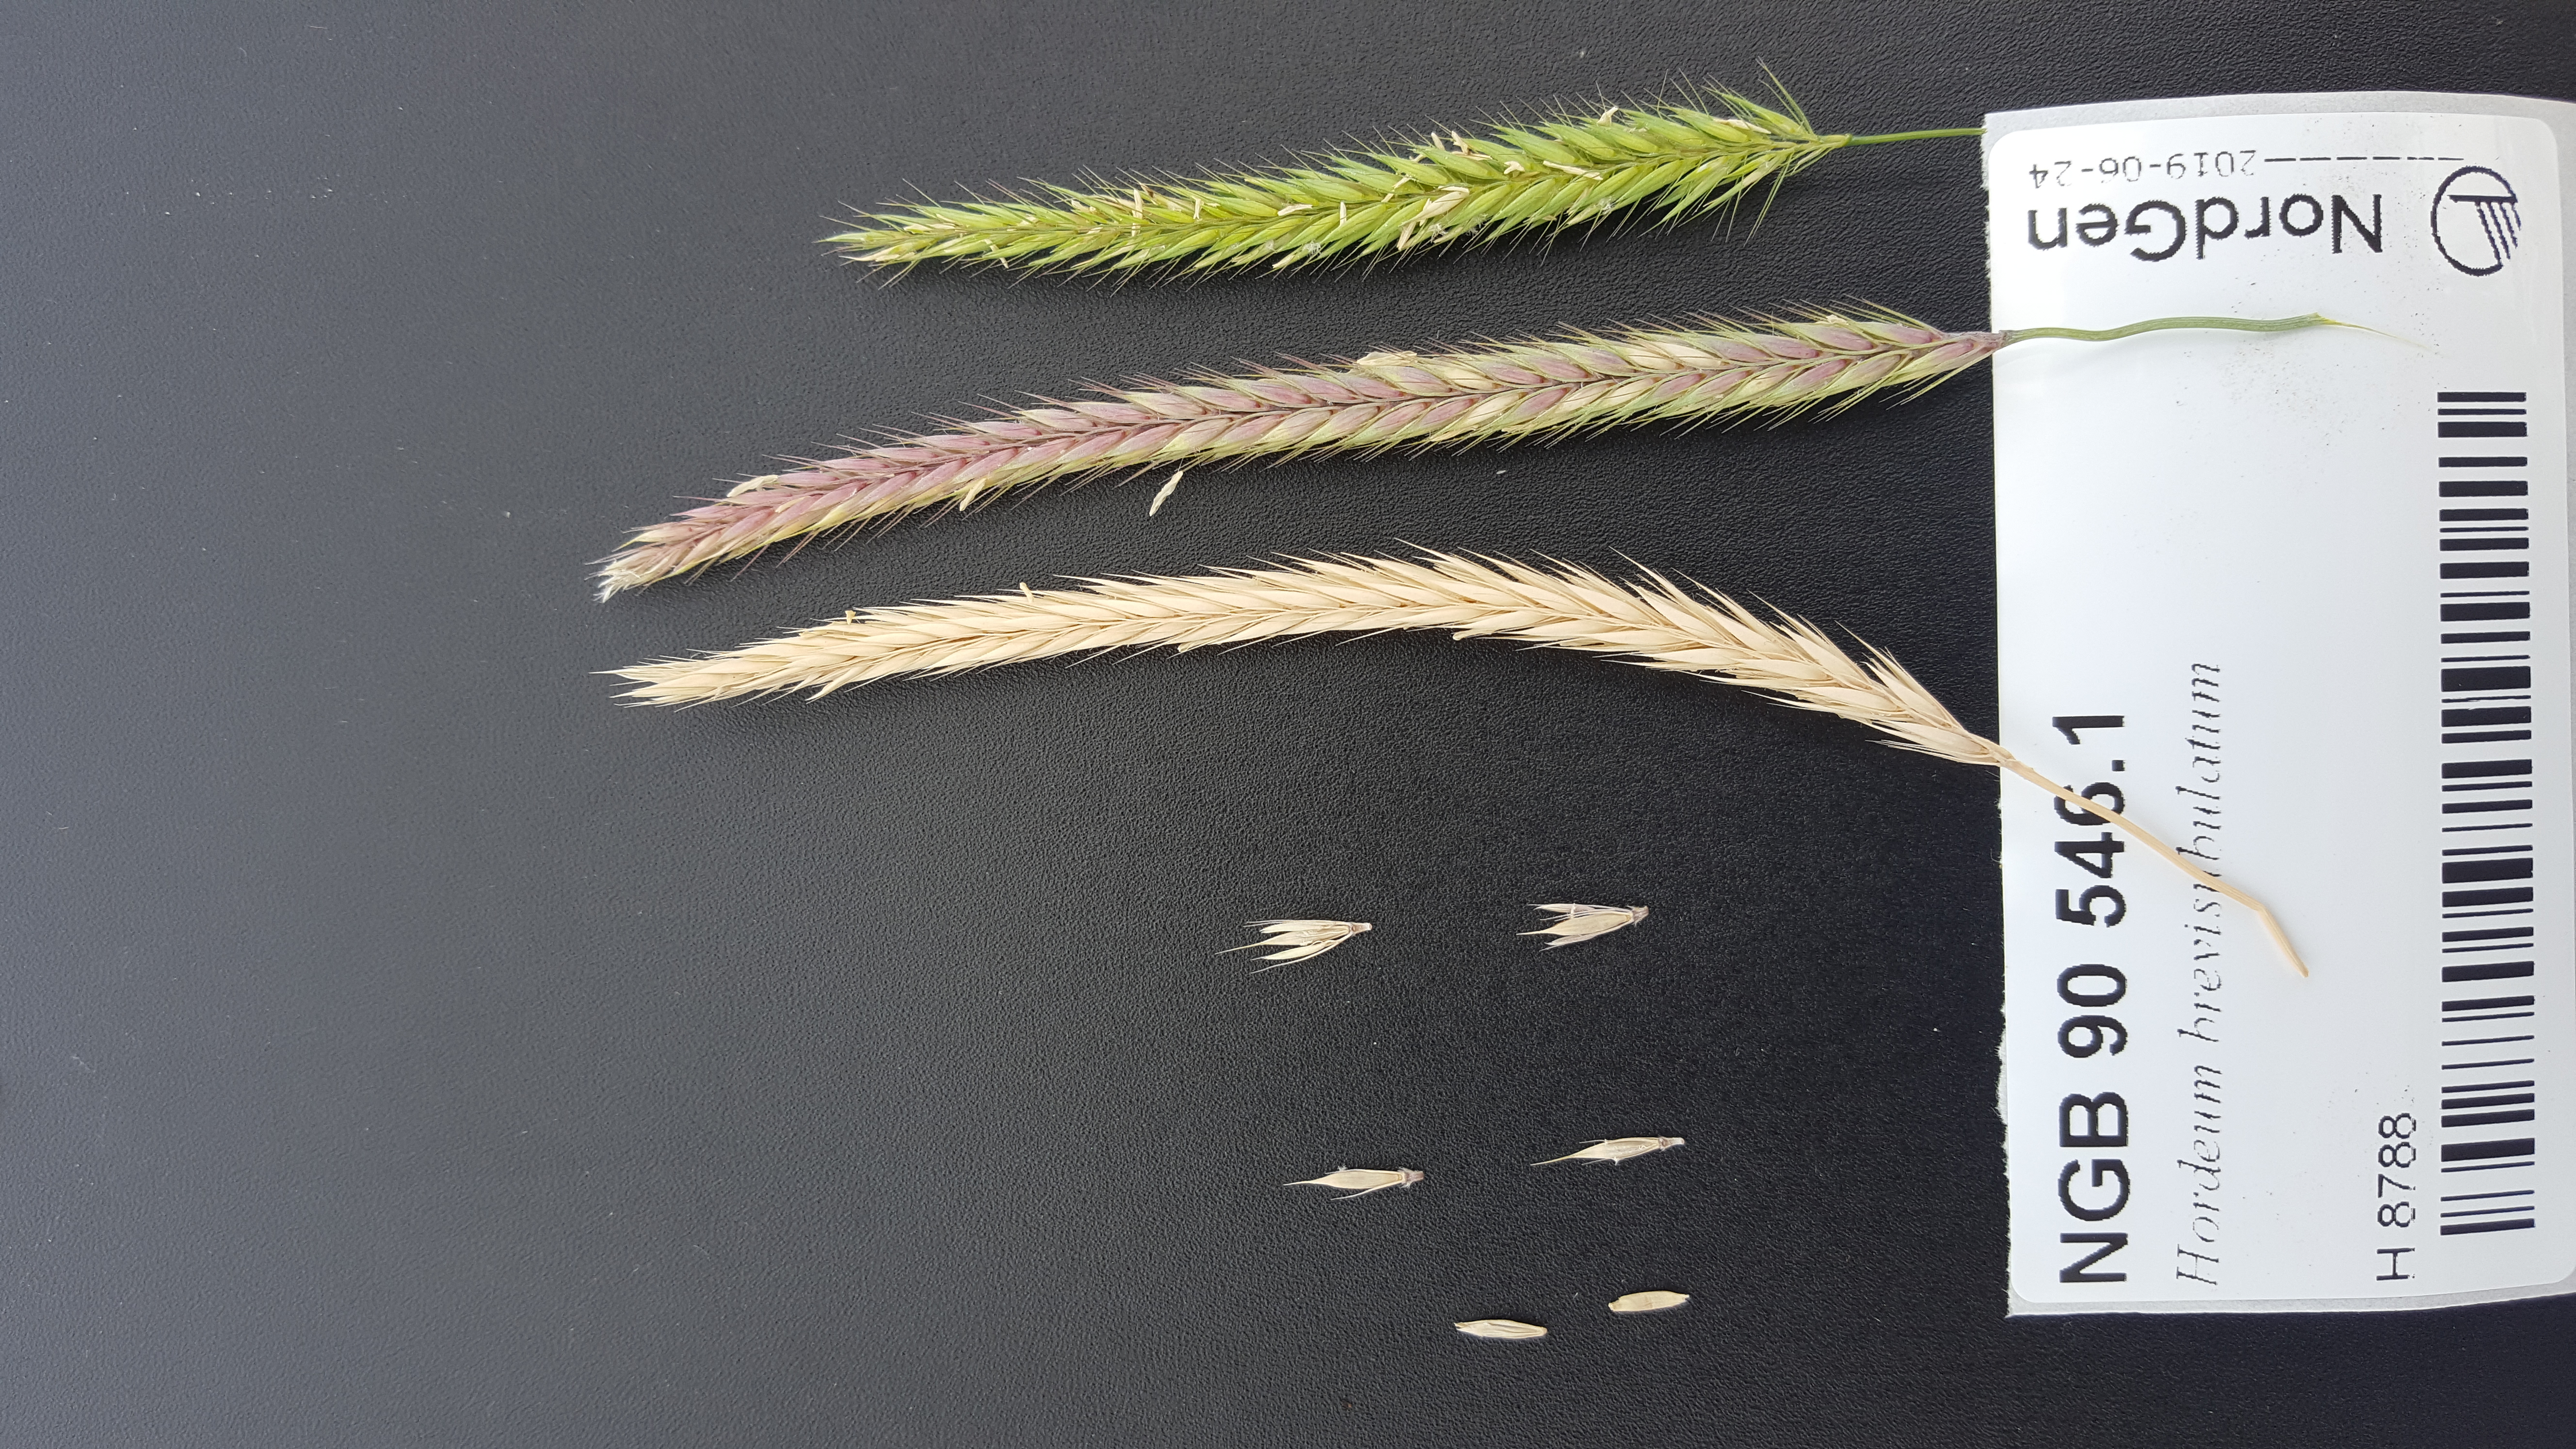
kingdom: Plantae
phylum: Tracheophyta
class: Liliopsida
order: Poales
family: Poaceae
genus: Hordeum
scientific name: Hordeum brevisubulatum
